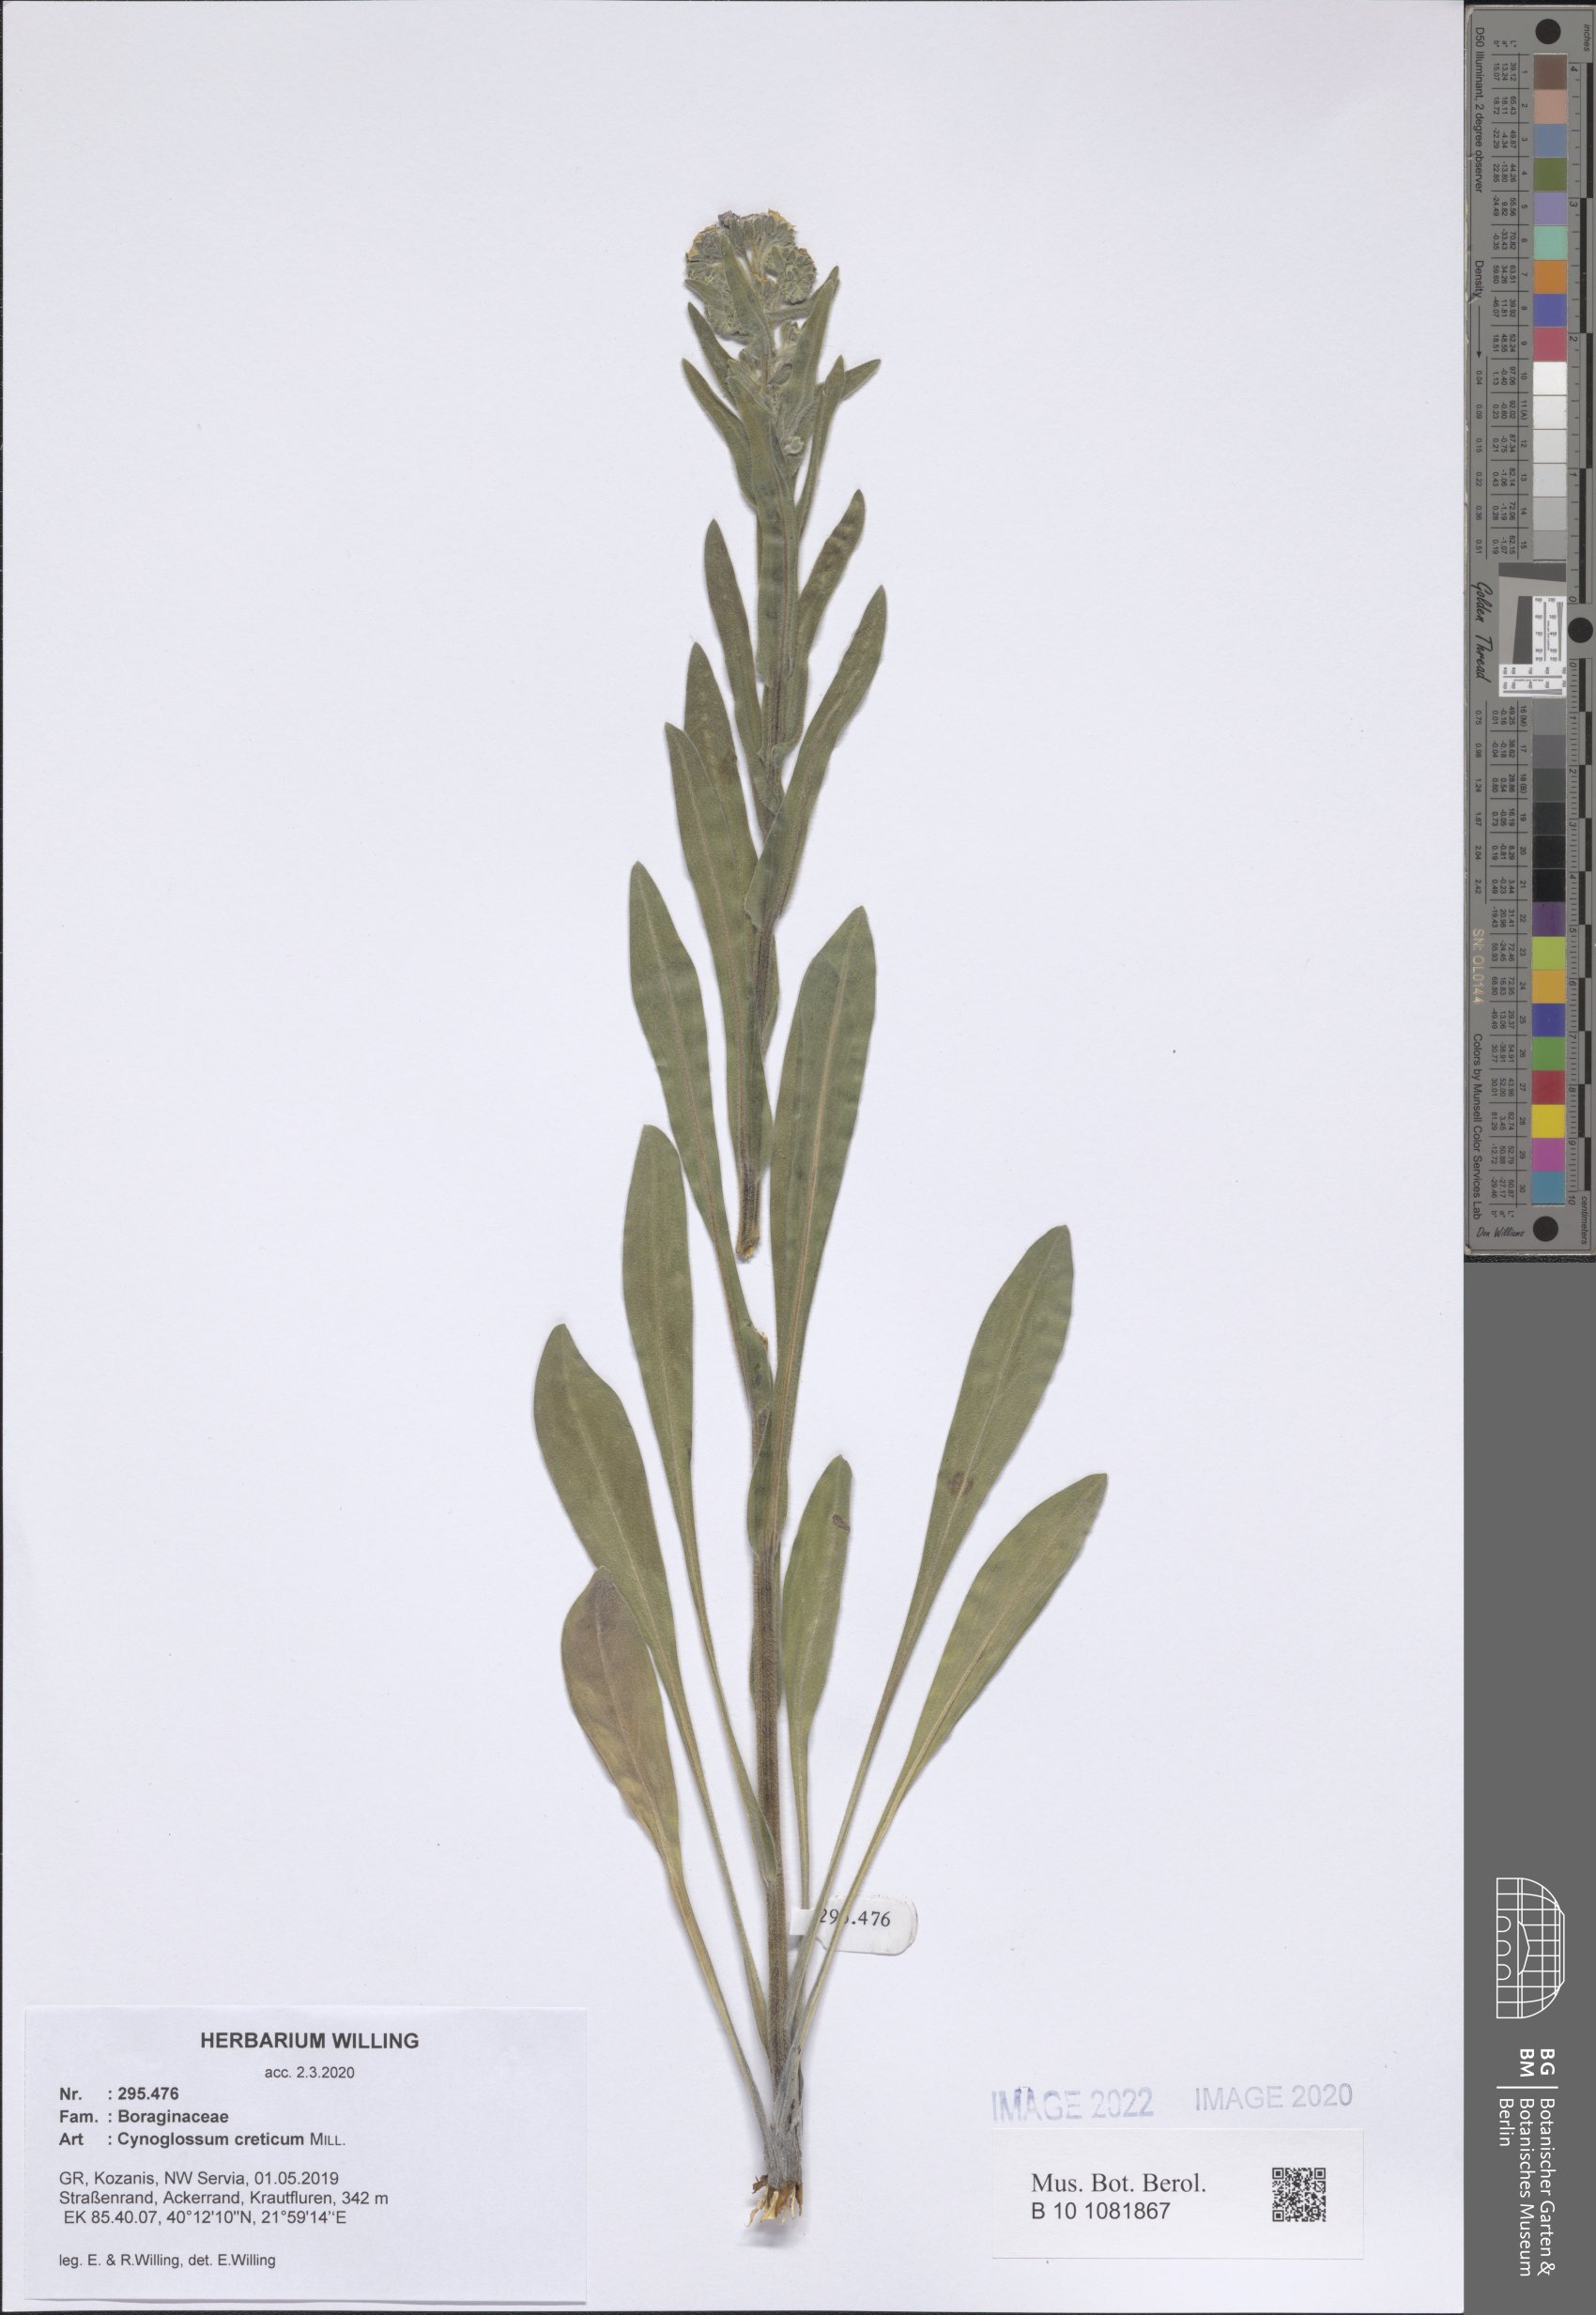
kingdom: Plantae
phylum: Tracheophyta
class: Magnoliopsida
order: Boraginales
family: Boraginaceae
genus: Cynoglossum
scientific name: Cynoglossum creticum
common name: Blue hound's tongue
